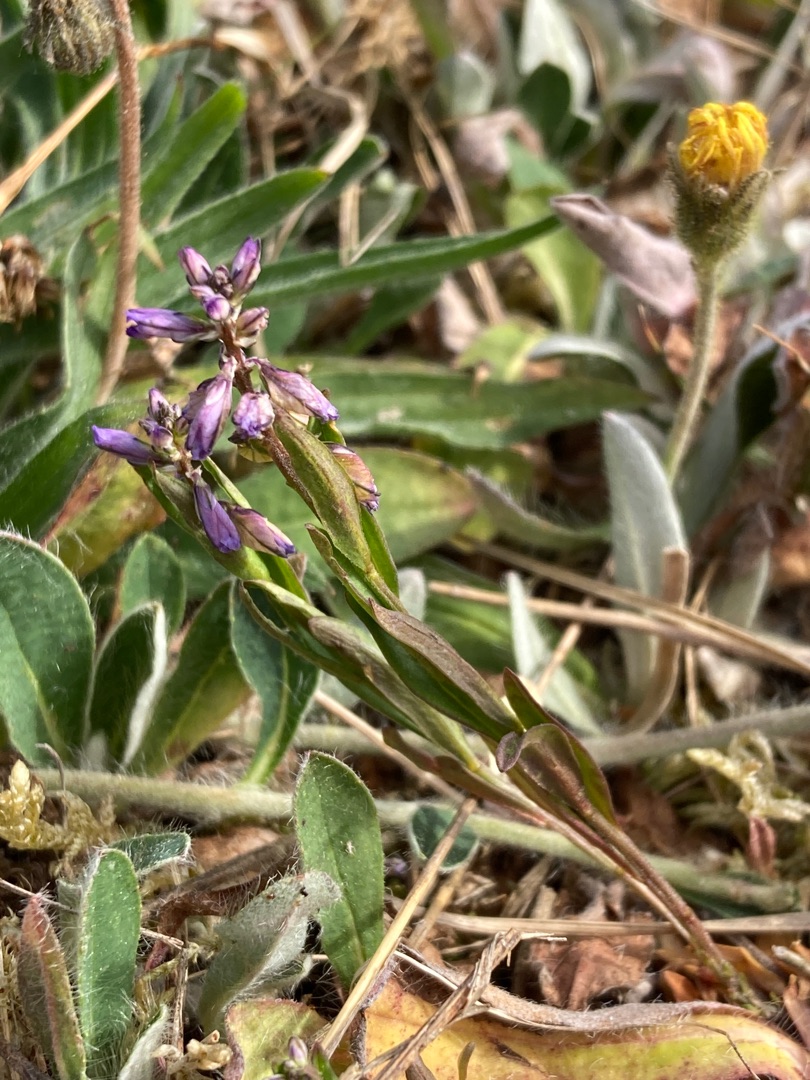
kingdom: Plantae
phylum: Tracheophyta
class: Magnoliopsida
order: Fabales
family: Polygalaceae
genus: Polygala
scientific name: Polygala vulgaris
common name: Almindelig mælkeurt
